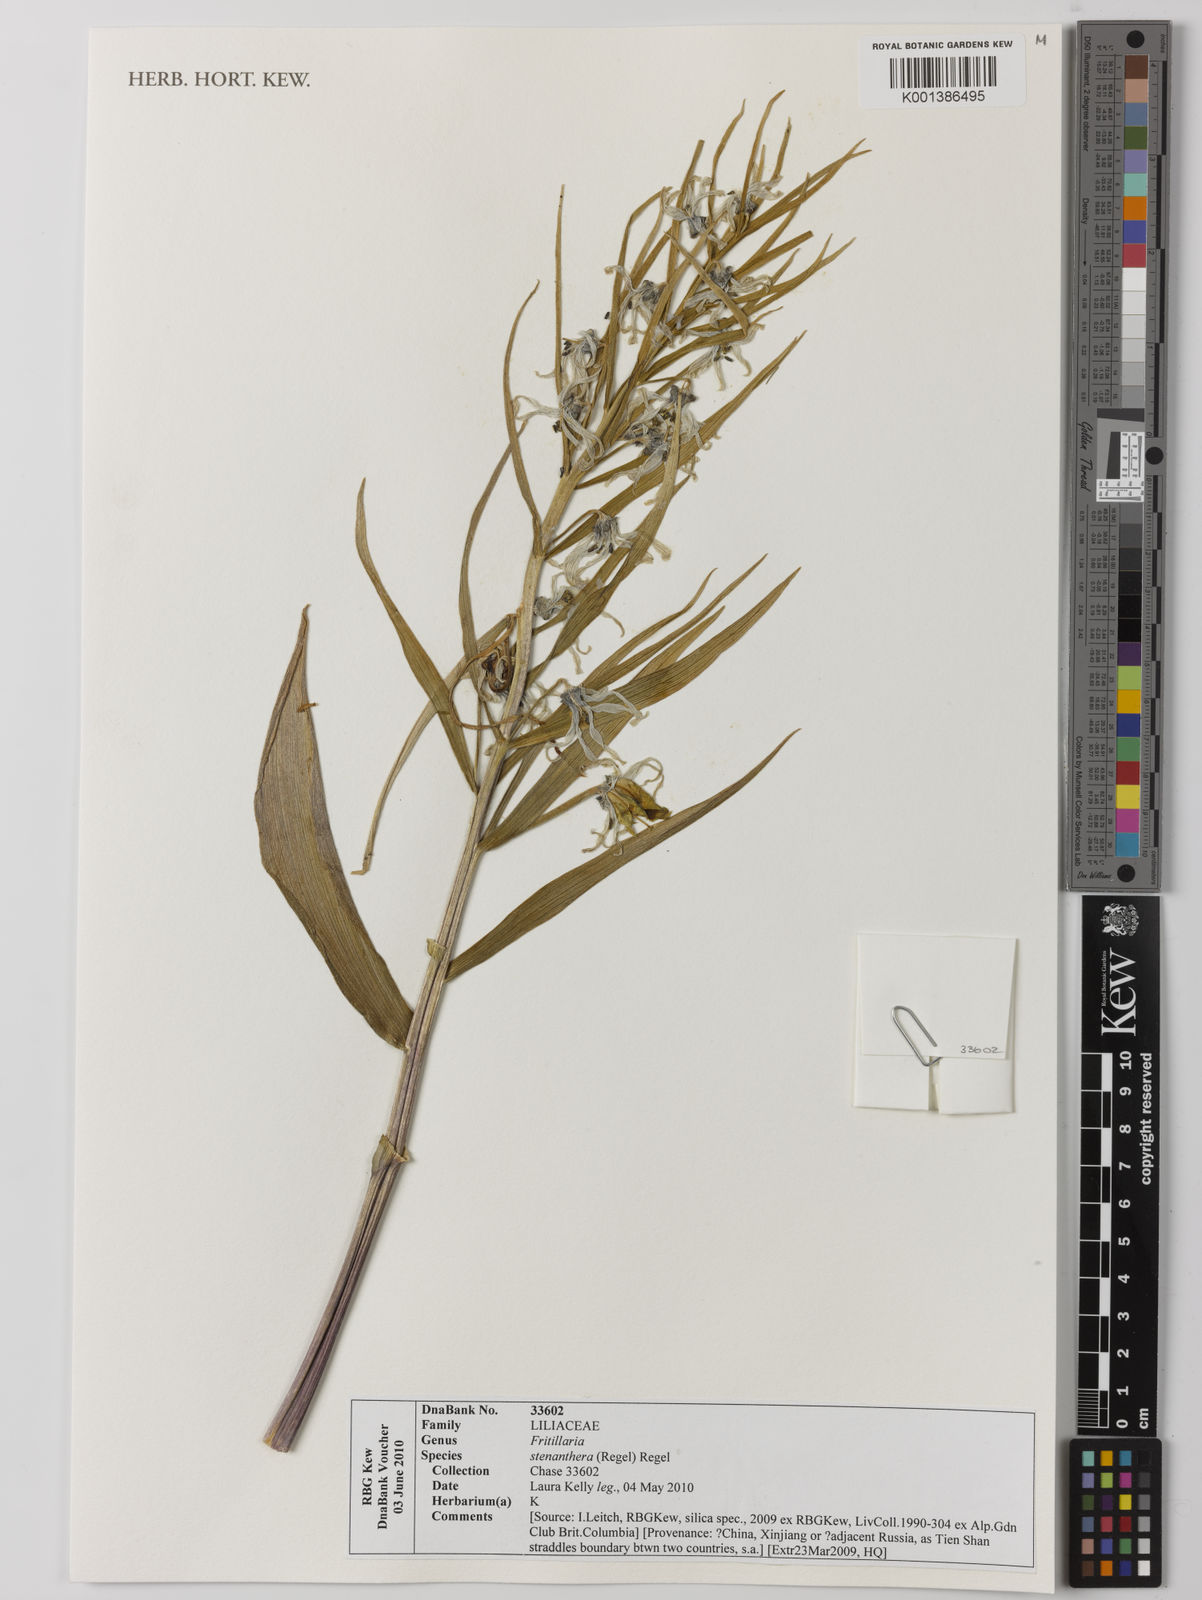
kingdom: Plantae
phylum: Tracheophyta
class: Liliopsida
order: Liliales
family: Liliaceae
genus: Fritillaria
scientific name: Fritillaria stenanthera
